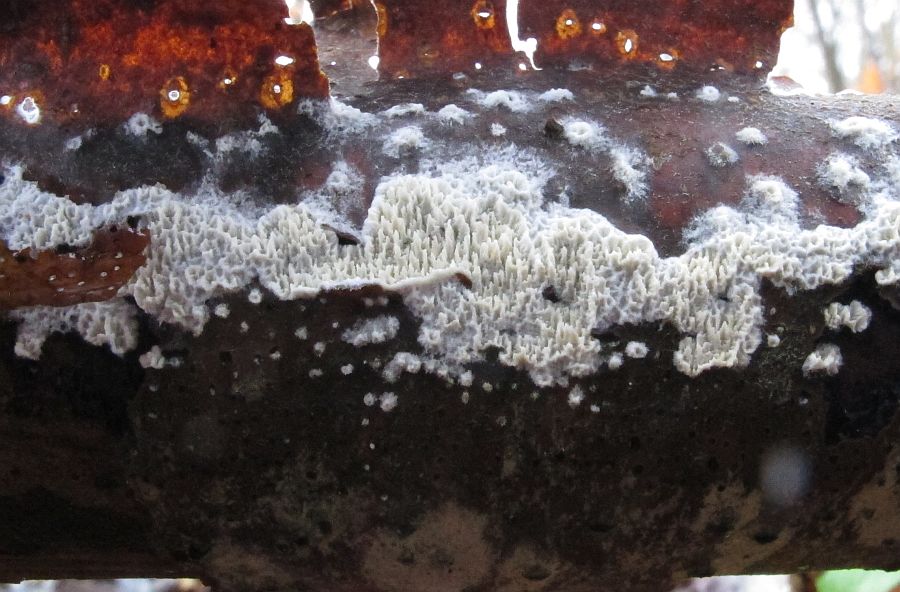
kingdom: Fungi
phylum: Basidiomycota
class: Agaricomycetes
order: Hymenochaetales
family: Schizoporaceae
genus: Xylodon
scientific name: Xylodon subtropicus
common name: labyrint-tandsvamp
